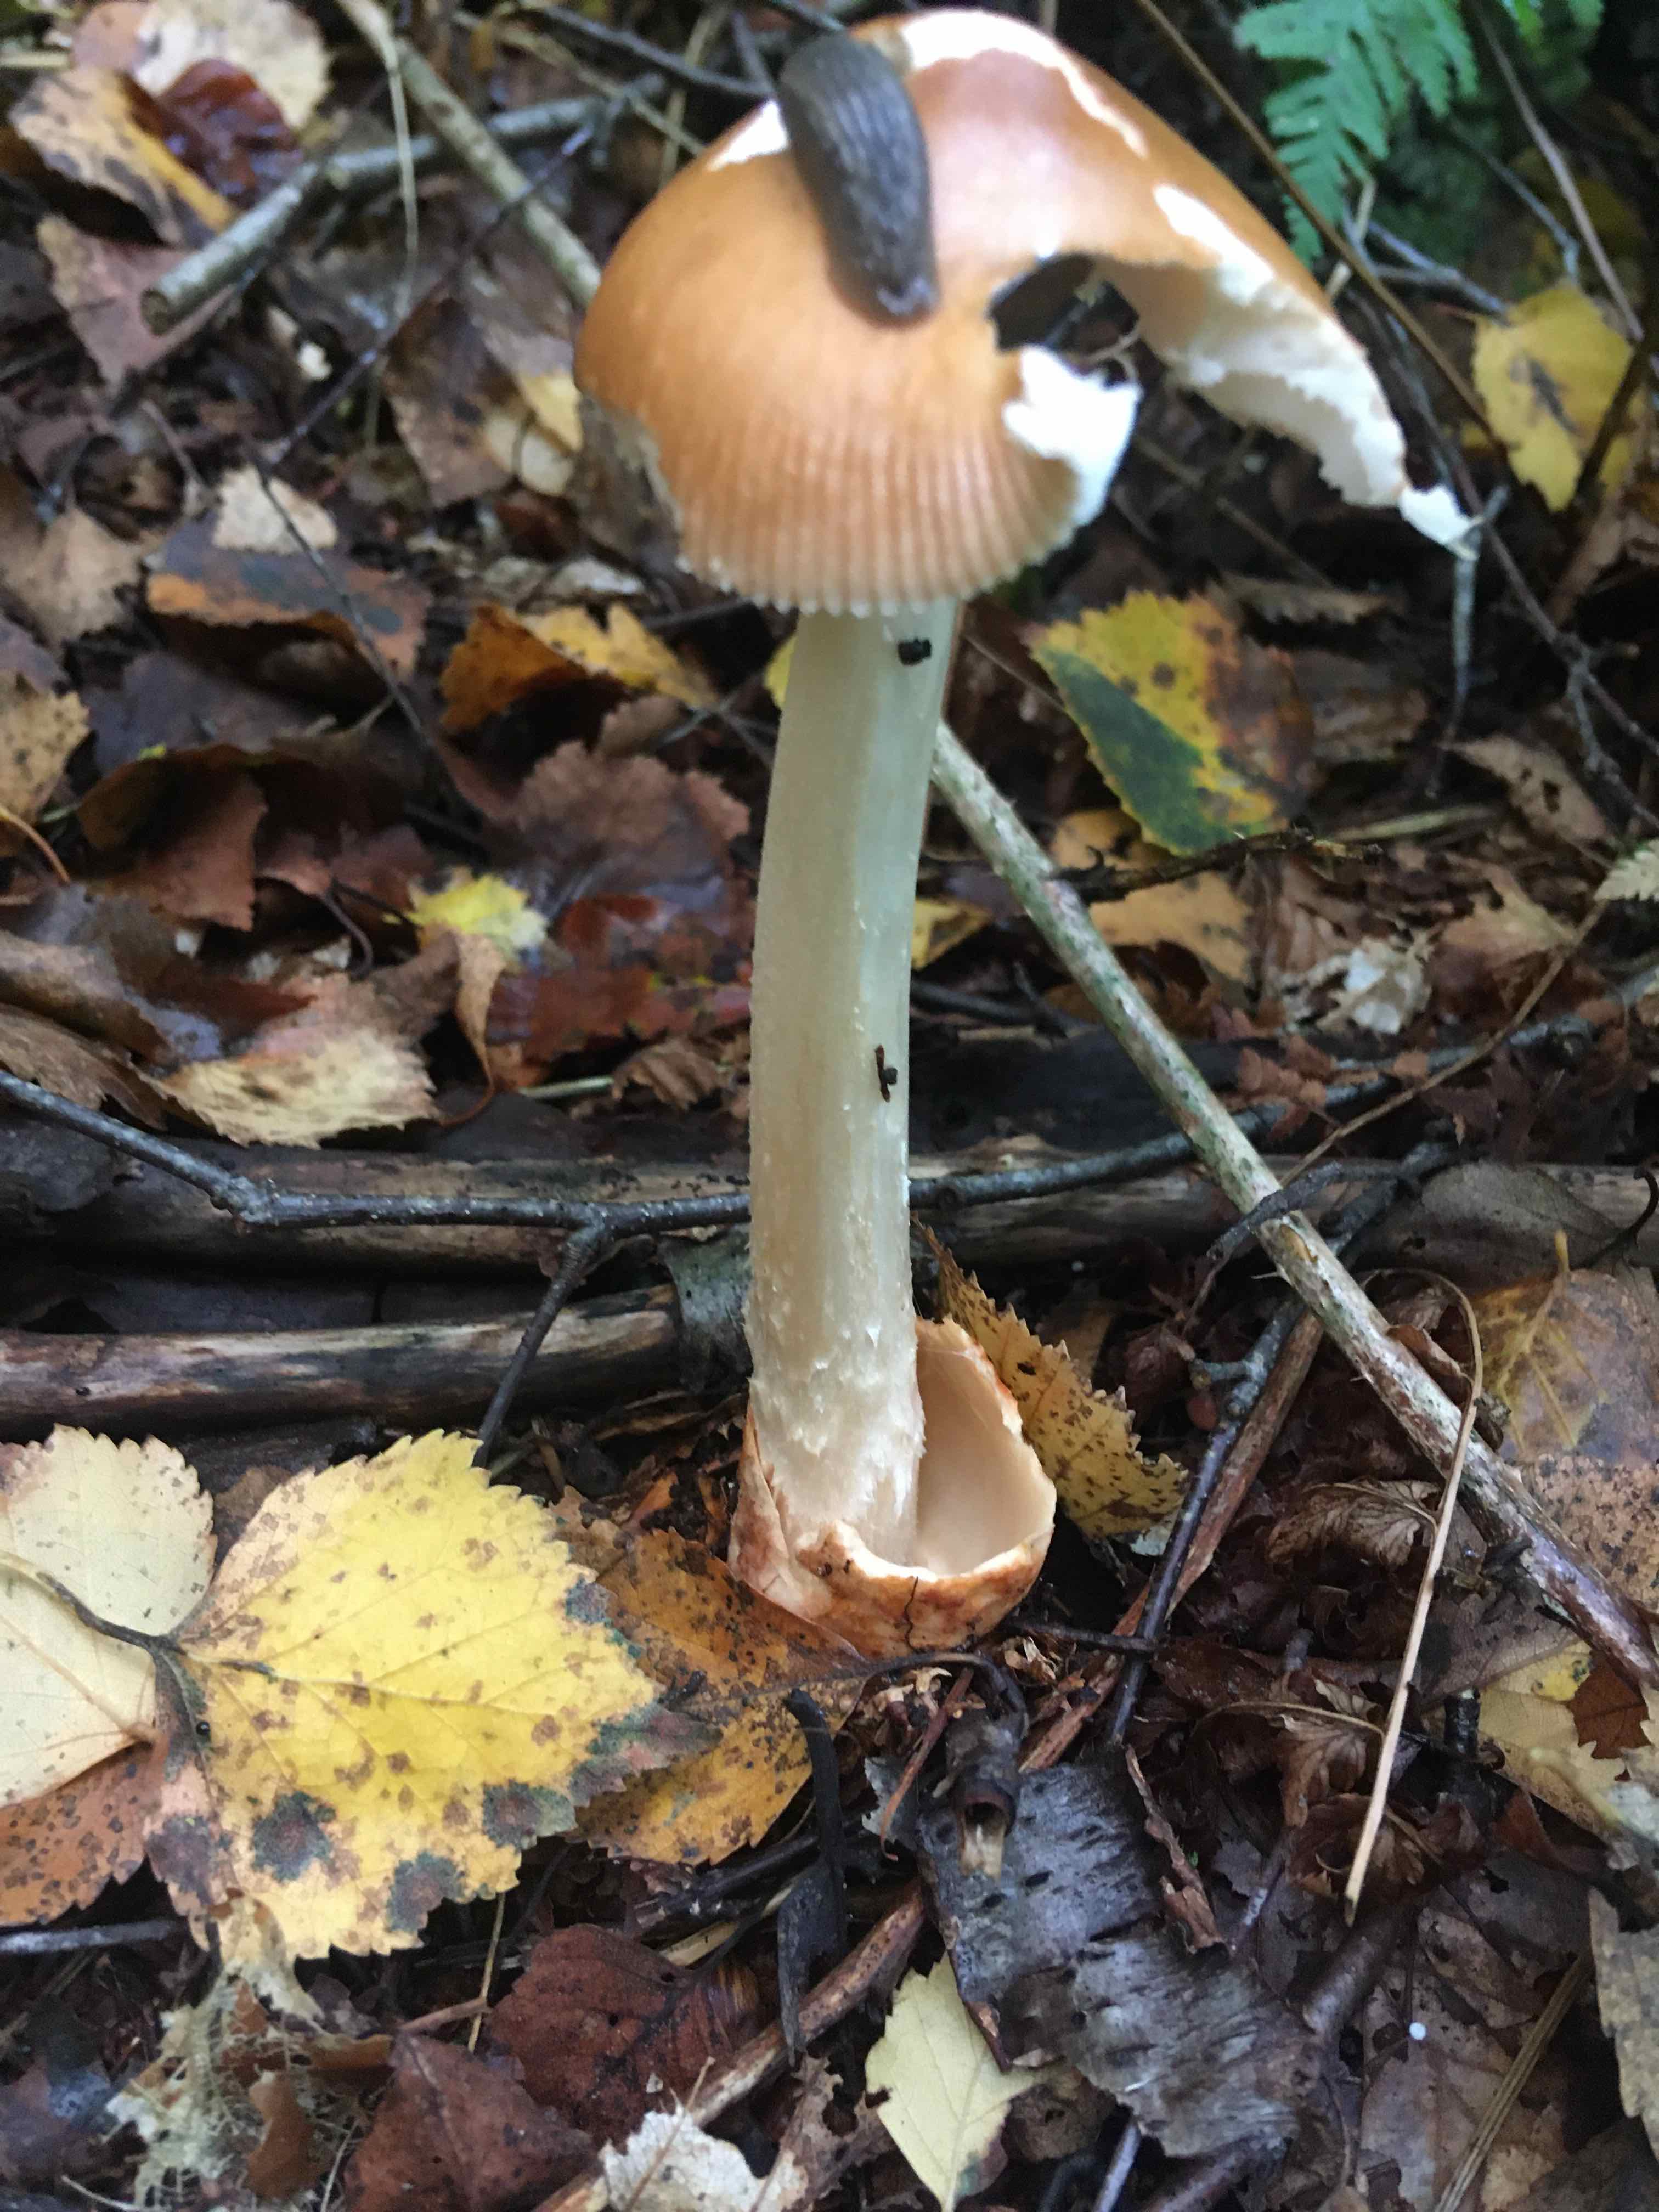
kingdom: Fungi
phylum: Basidiomycota
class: Agaricomycetes
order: Agaricales
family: Amanitaceae
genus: Amanita
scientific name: Amanita fulva
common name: brun kam-fluesvamp
